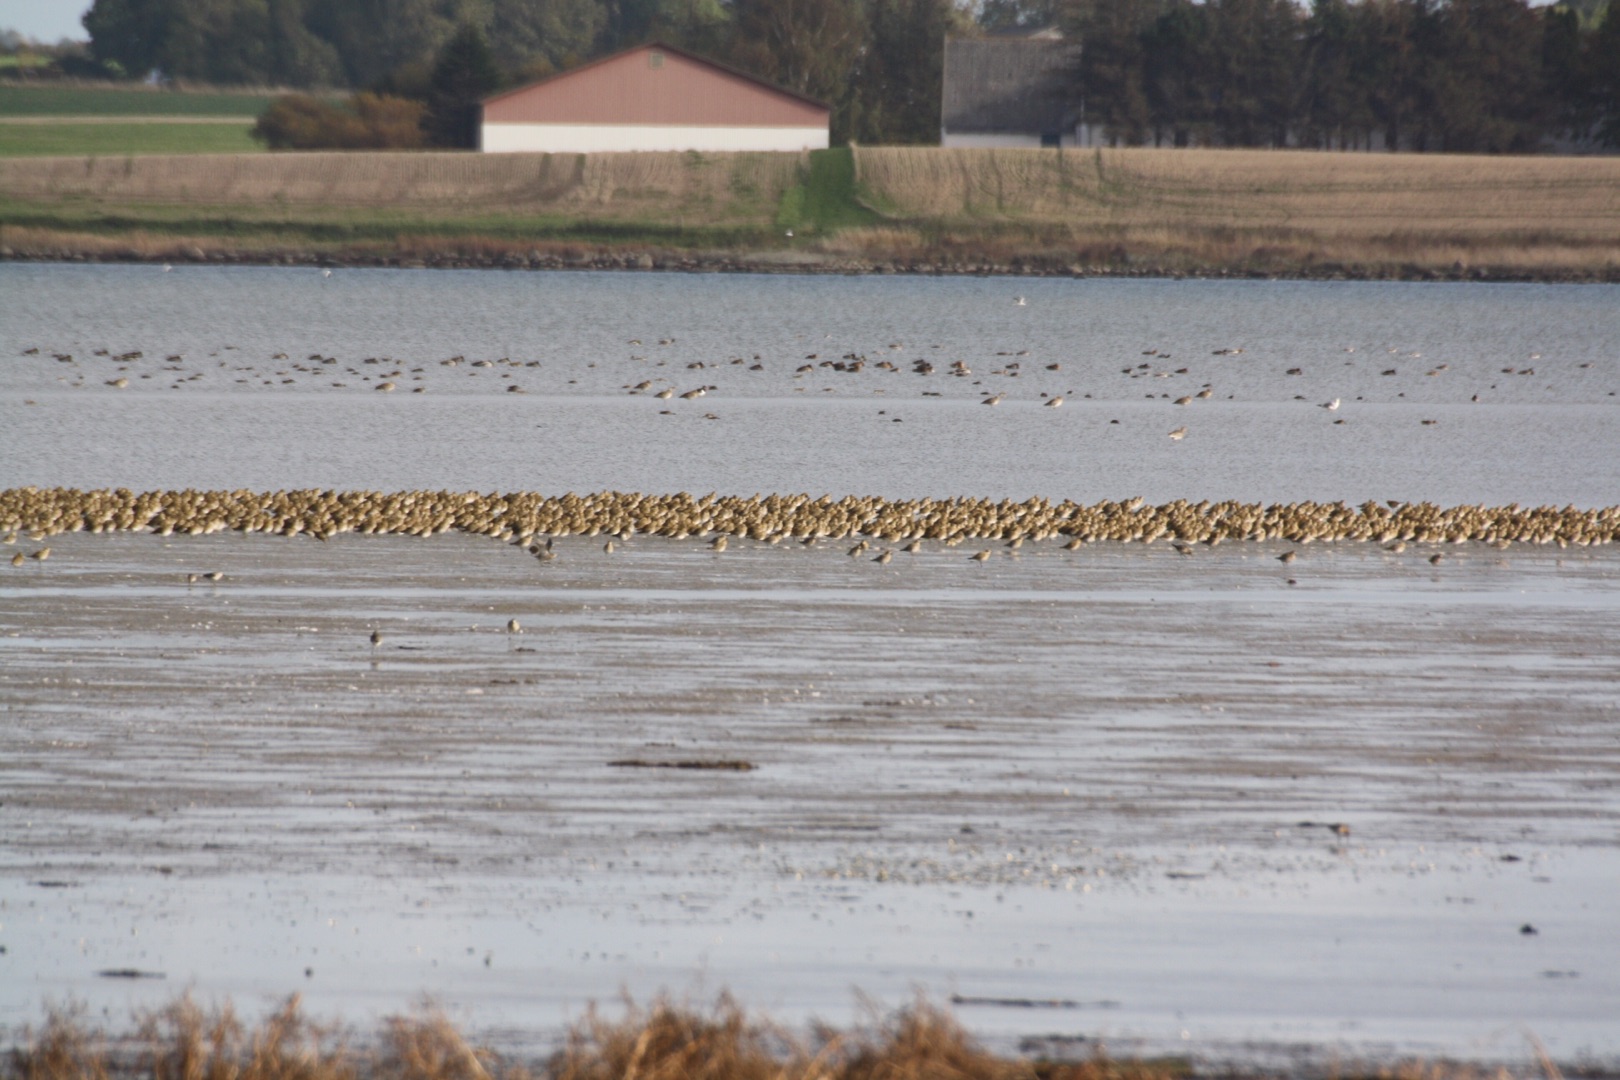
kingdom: Animalia
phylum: Chordata
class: Aves
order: Charadriiformes
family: Charadriidae
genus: Pluvialis
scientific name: Pluvialis apricaria
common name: Hjejle
